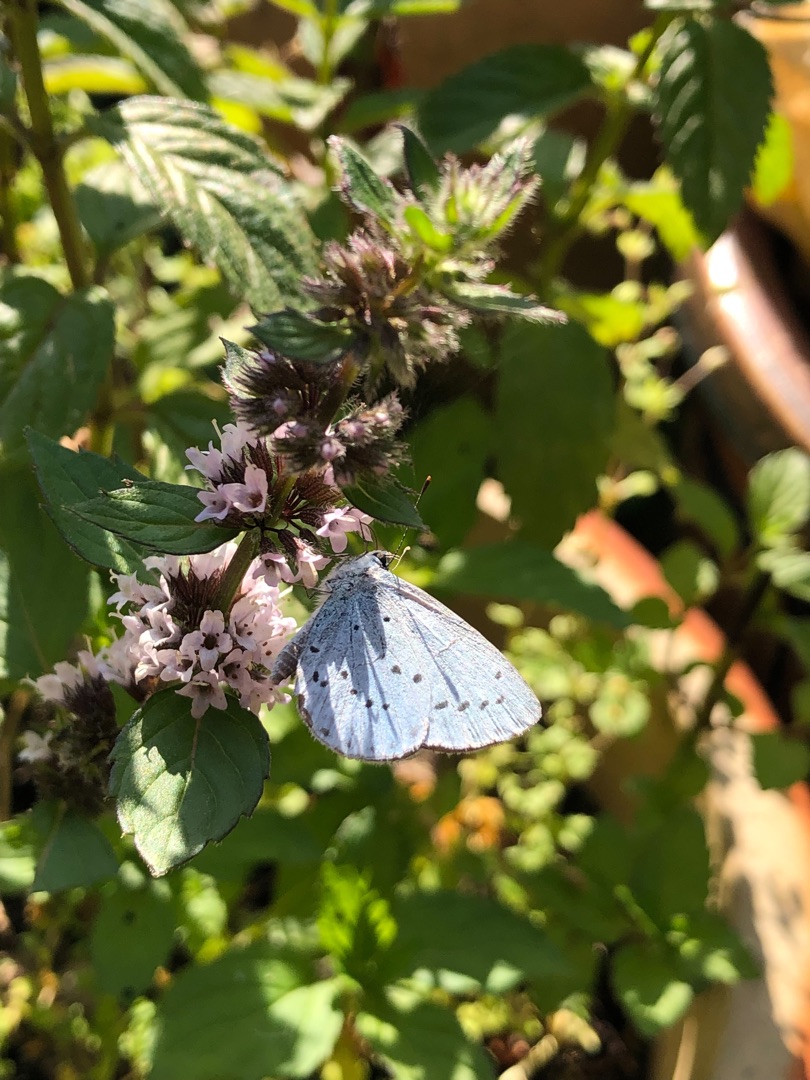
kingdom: Animalia
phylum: Arthropoda
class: Insecta
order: Lepidoptera
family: Lycaenidae
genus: Celastrina
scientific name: Celastrina argiolus
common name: Skovblåfugl
